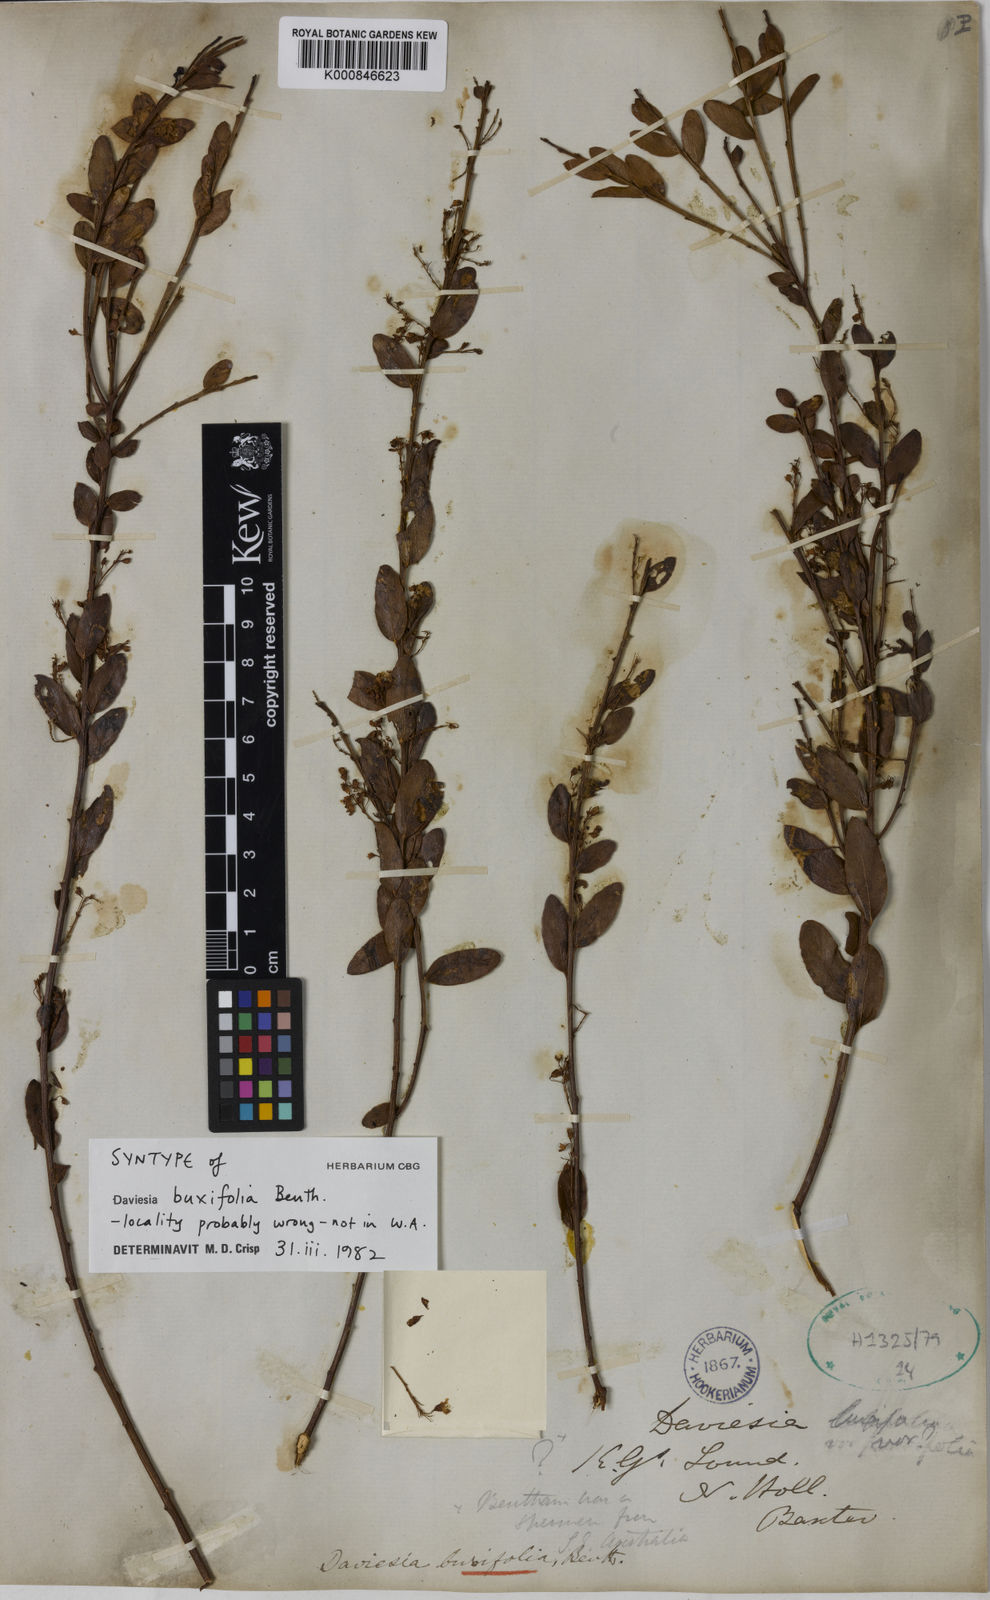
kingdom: Plantae
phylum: Tracheophyta
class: Magnoliopsida
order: Fabales
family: Fabaceae
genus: Daviesia
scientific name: Daviesia mimosoides
